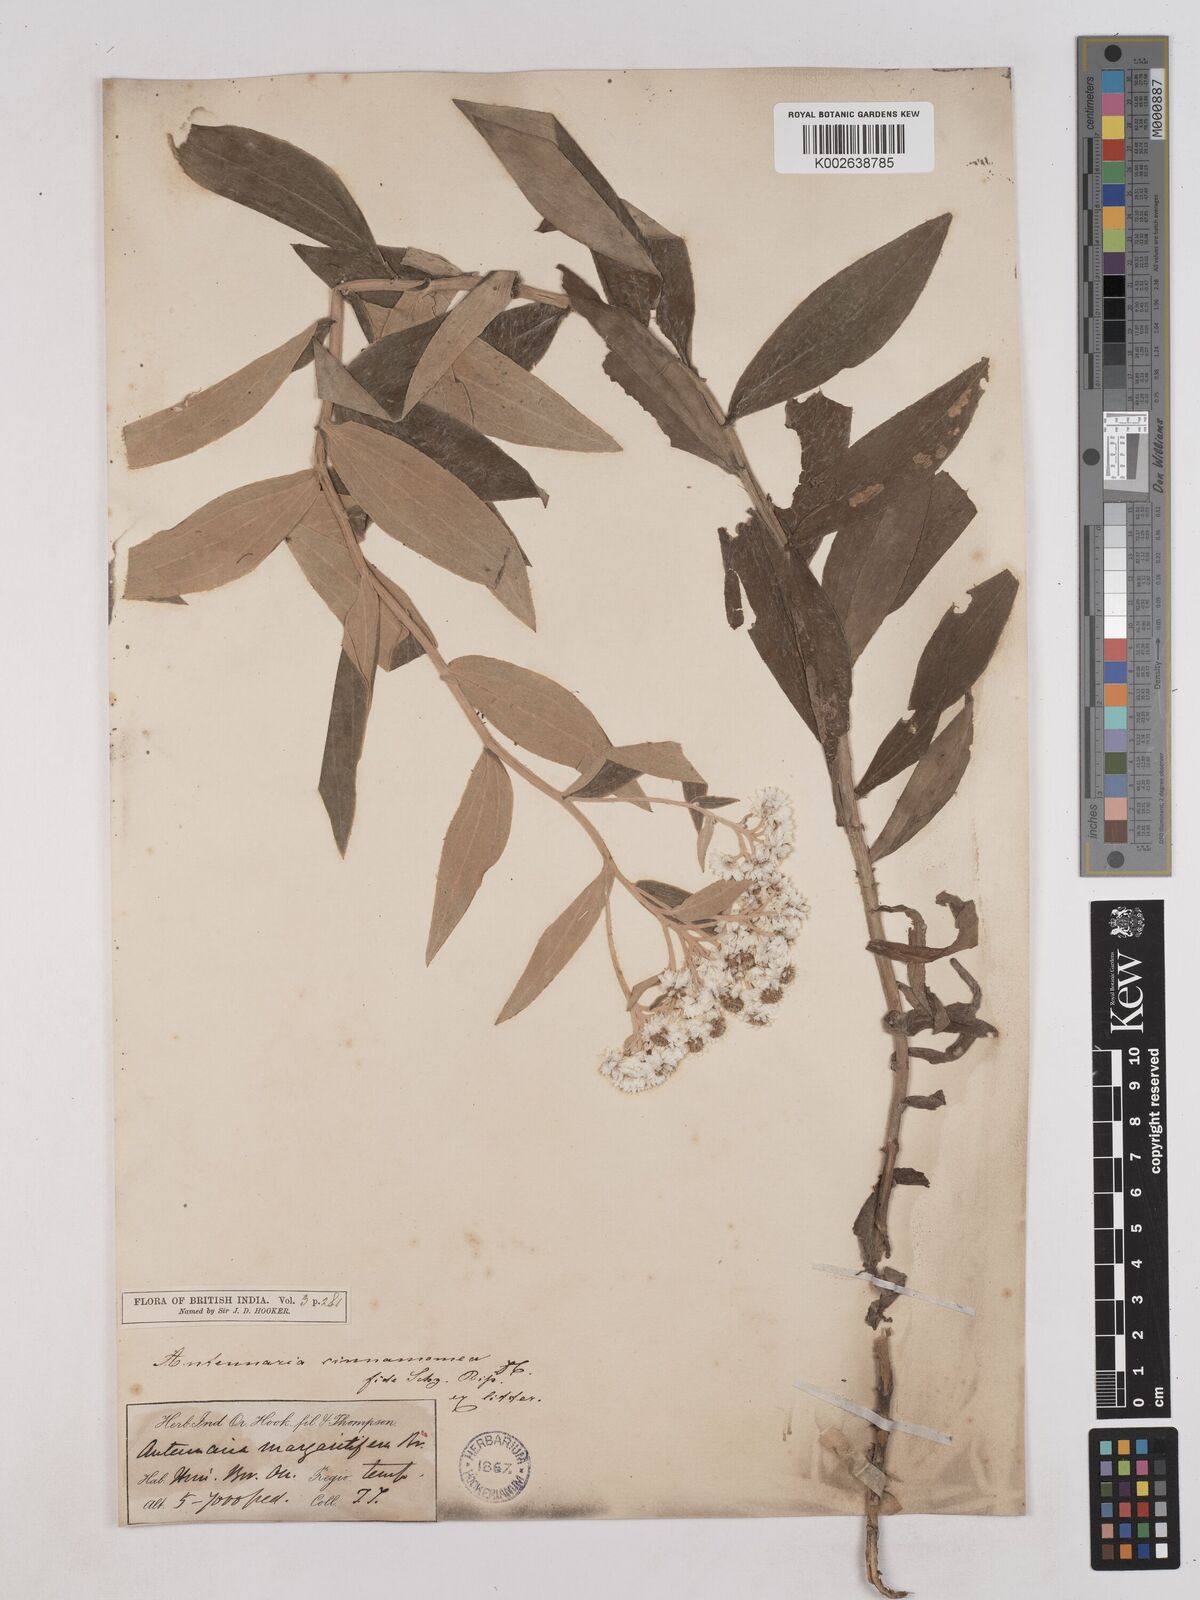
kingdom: Plantae
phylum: Tracheophyta
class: Magnoliopsida
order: Asterales
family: Asteraceae
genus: Anaphalis
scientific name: Anaphalis marcescens
